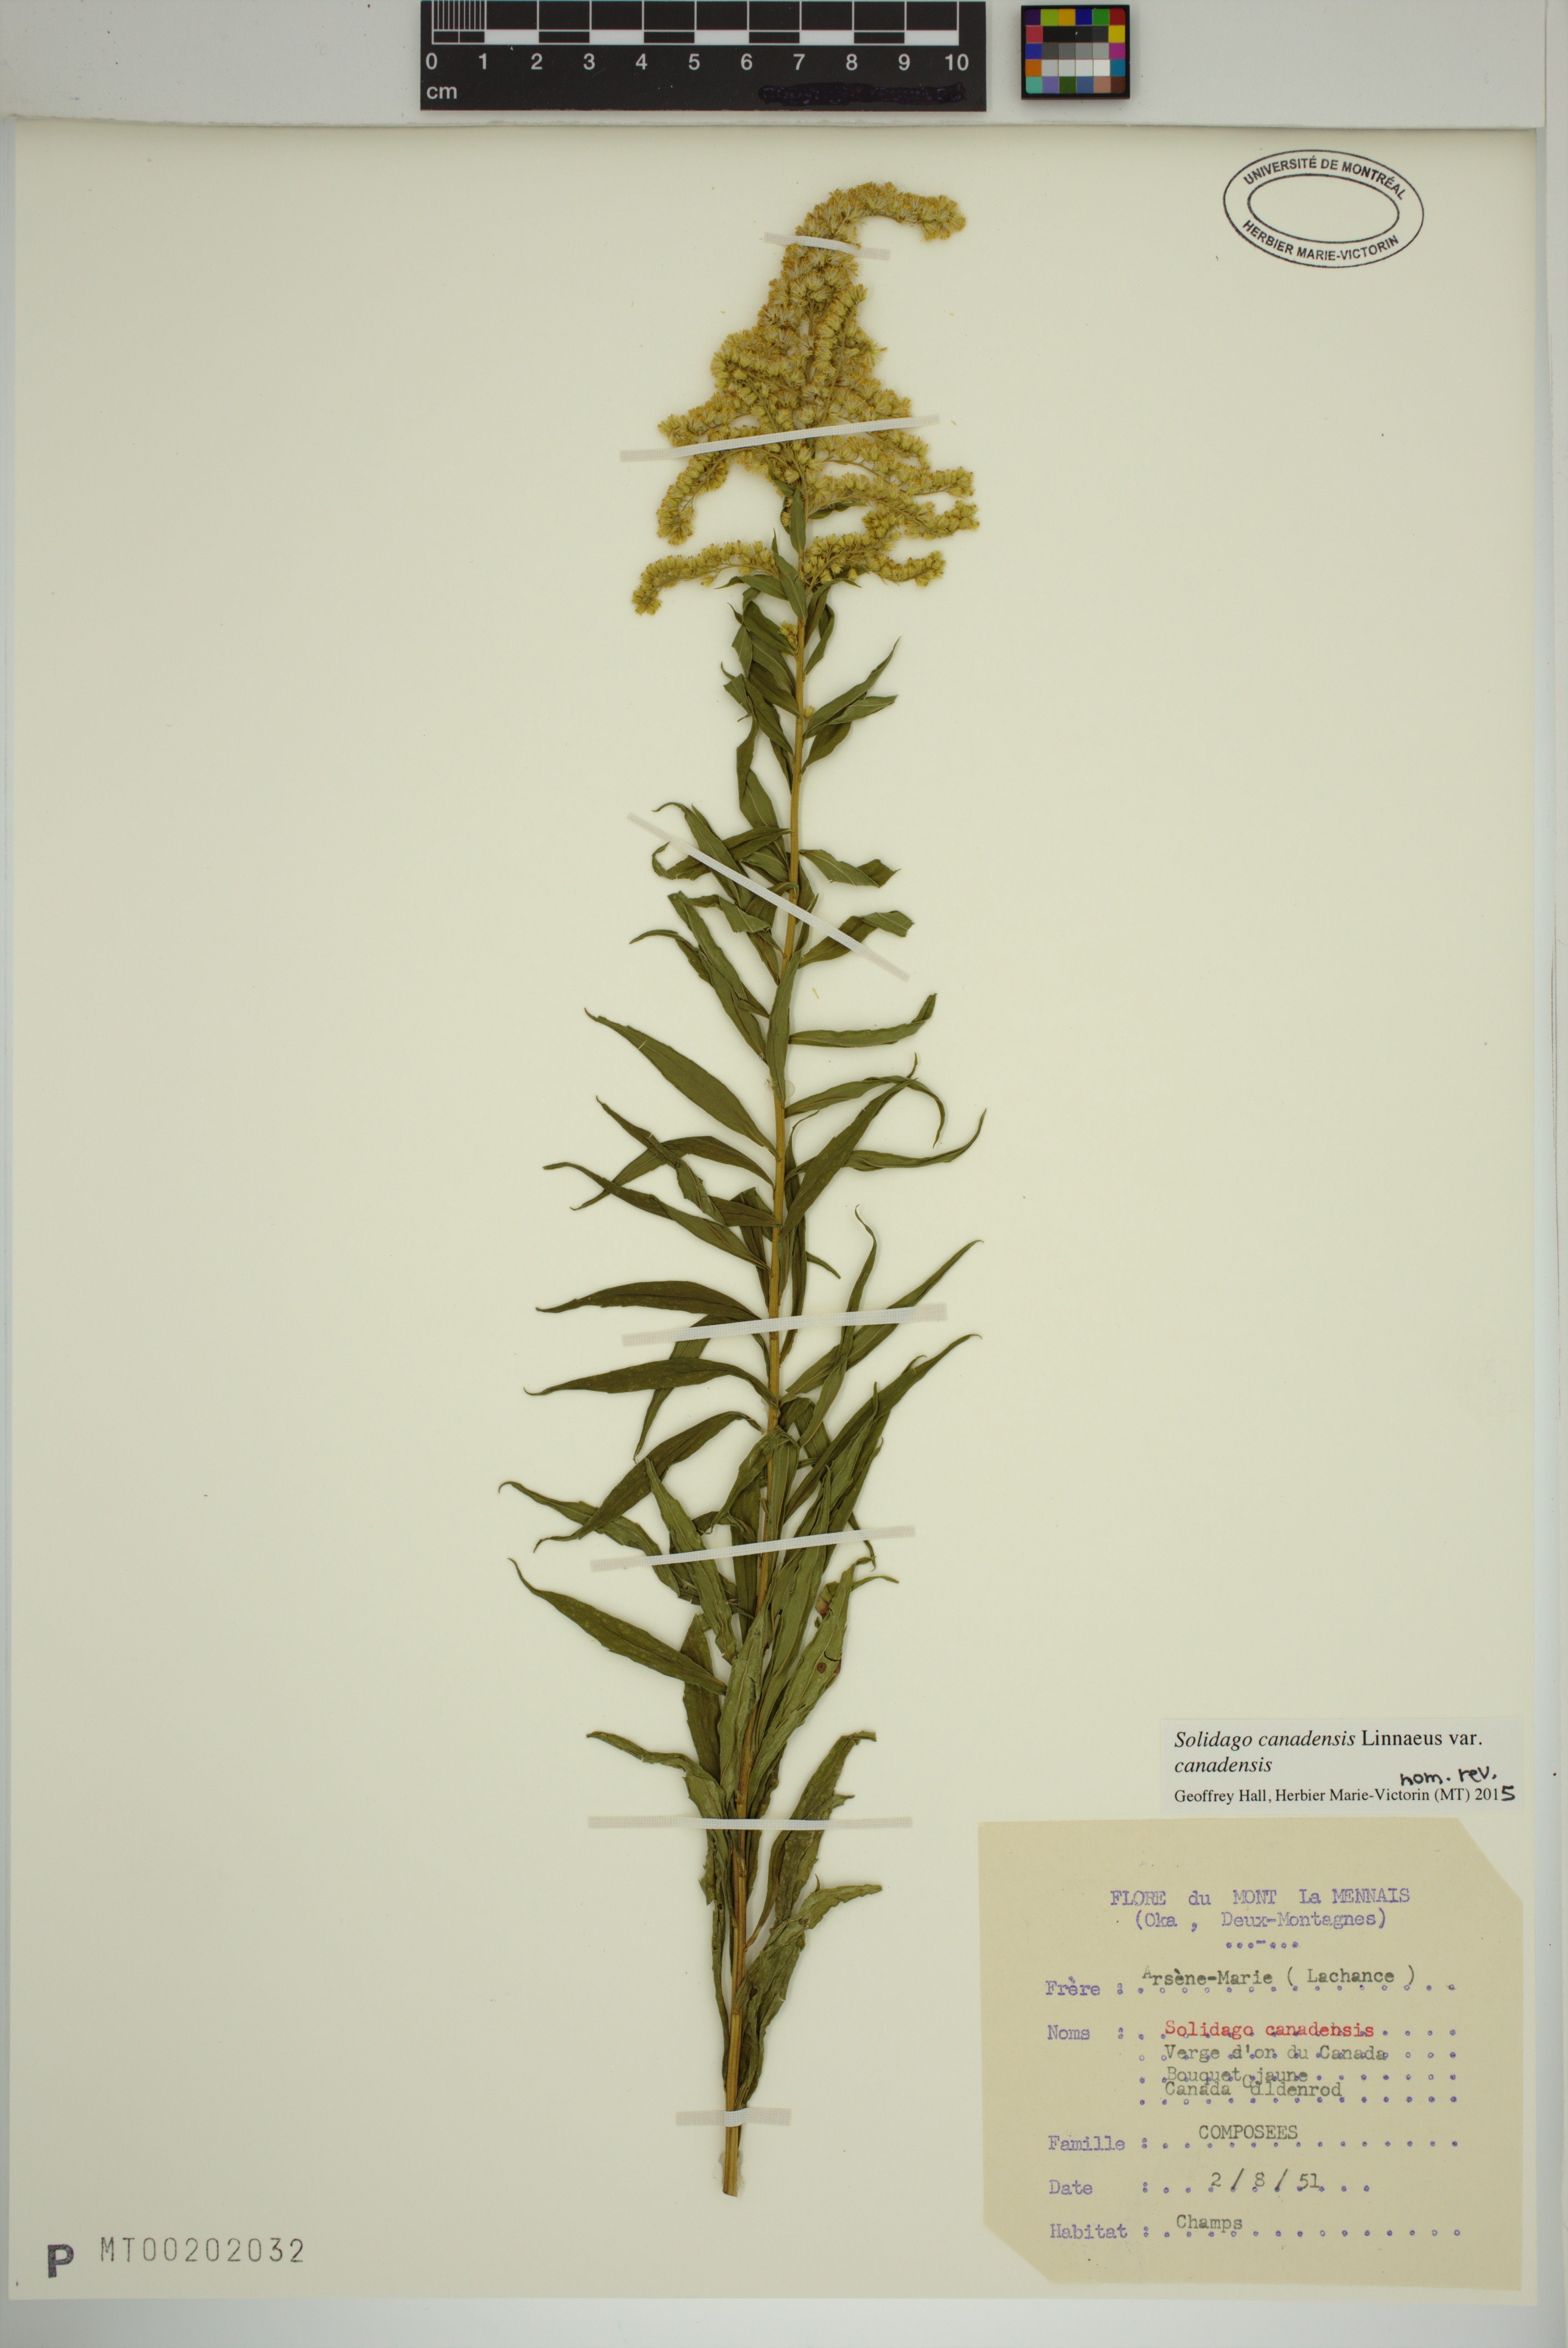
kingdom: Plantae
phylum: Tracheophyta
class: Magnoliopsida
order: Asterales
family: Asteraceae
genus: Solidago
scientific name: Solidago canadensis
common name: Canada goldenrod
